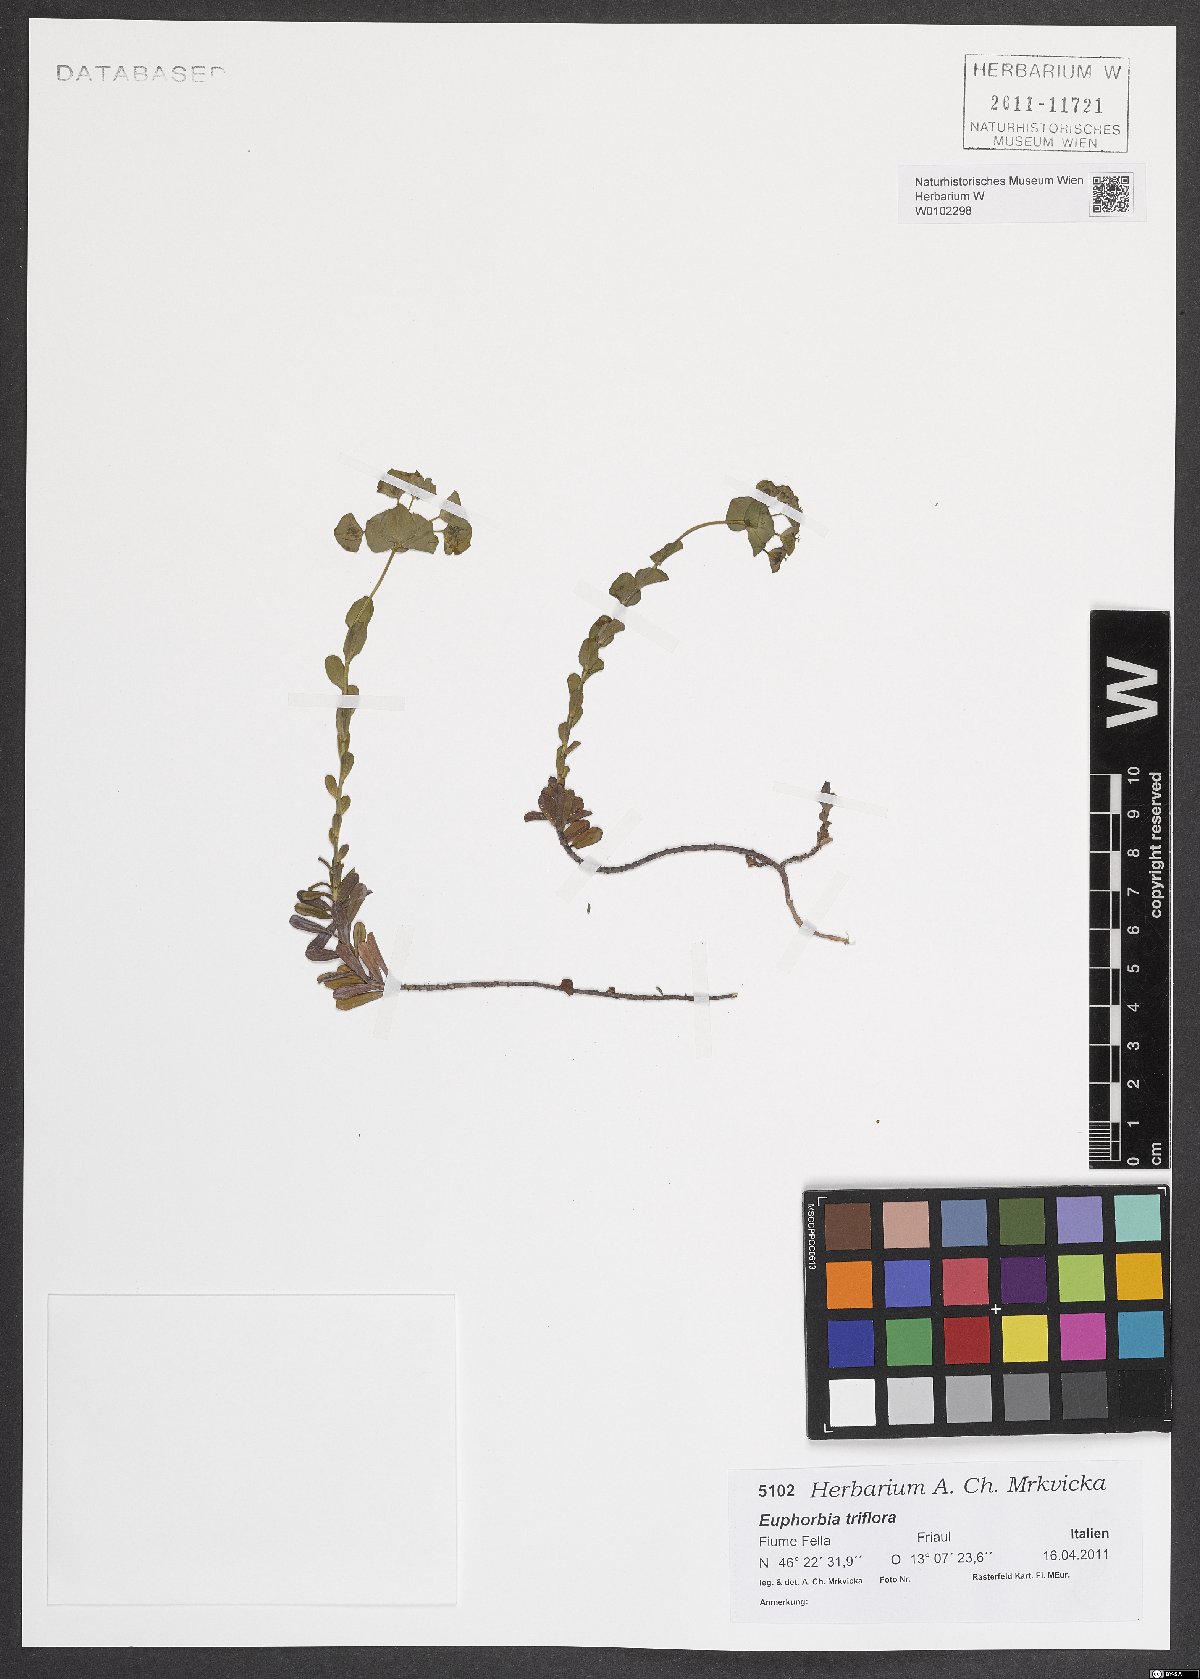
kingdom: Plantae
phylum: Tracheophyta
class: Magnoliopsida
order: Malpighiales
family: Euphorbiaceae
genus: Euphorbia
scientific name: Euphorbia triflora
